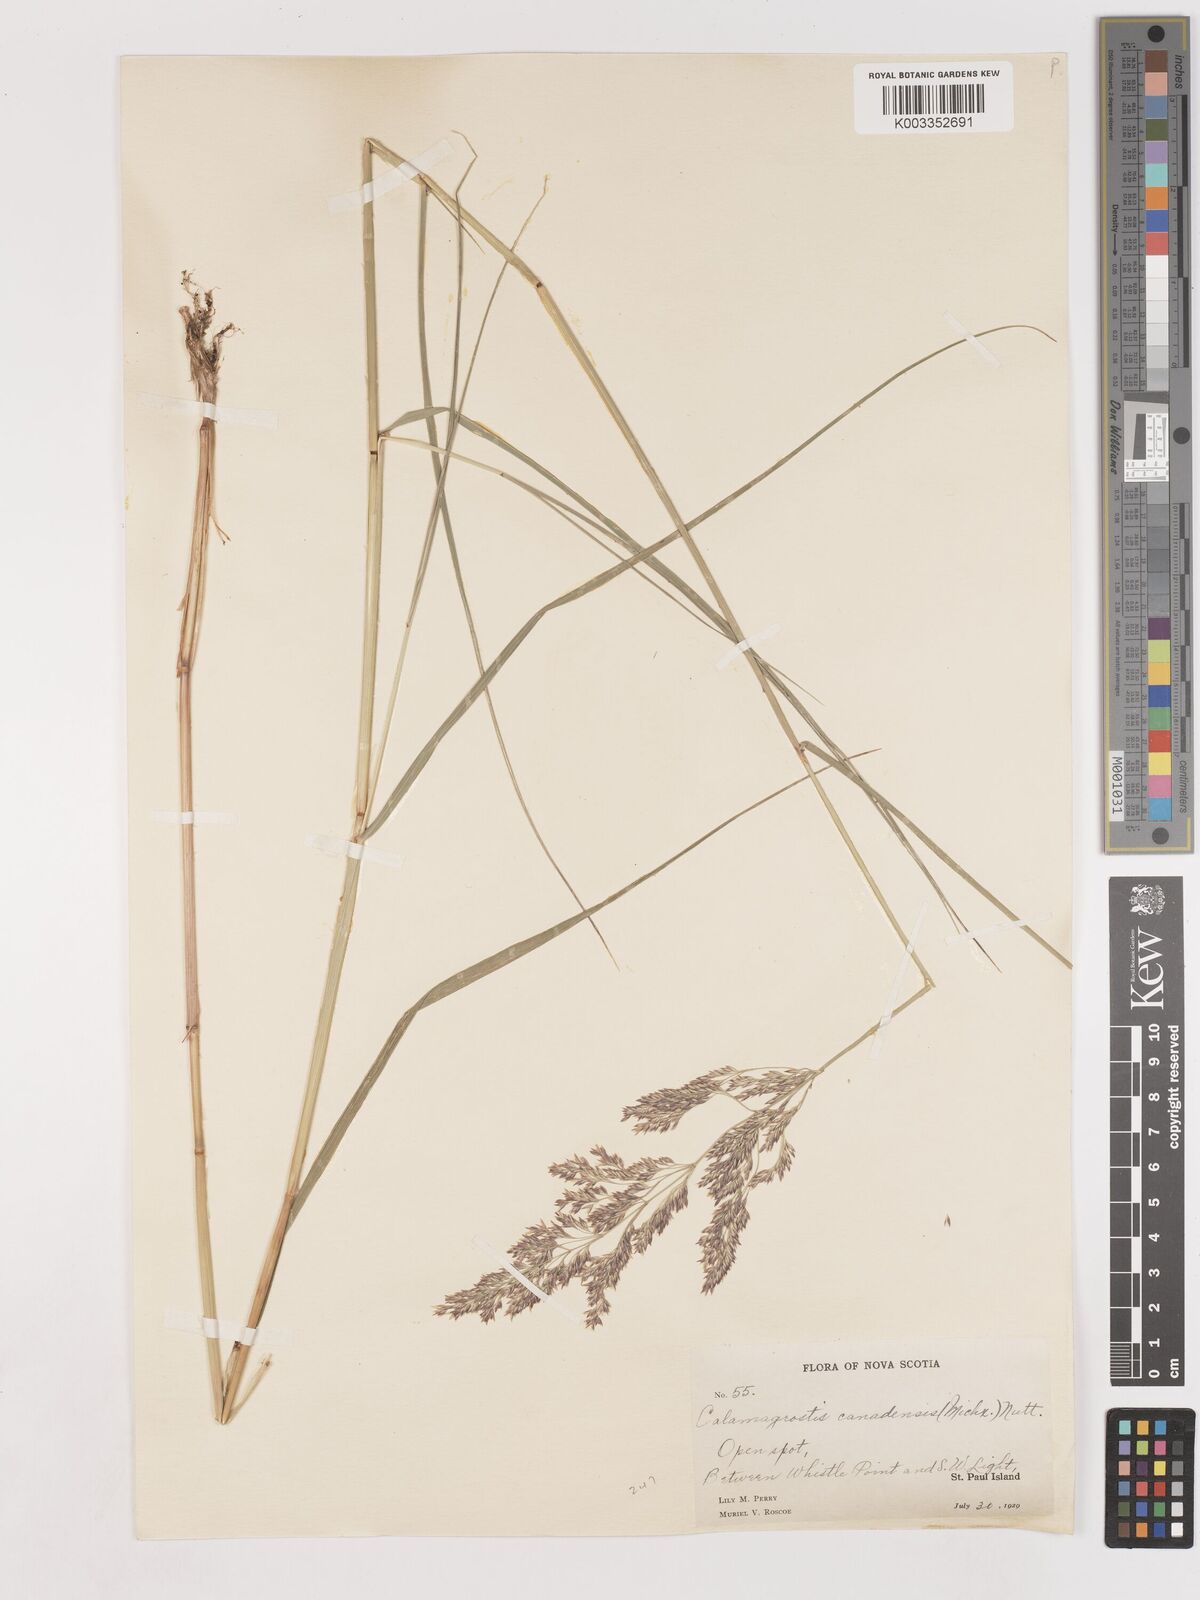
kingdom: Plantae
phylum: Tracheophyta
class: Liliopsida
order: Poales
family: Poaceae
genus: Calamagrostis
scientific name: Calamagrostis canadensis
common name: Canada bluejoint
